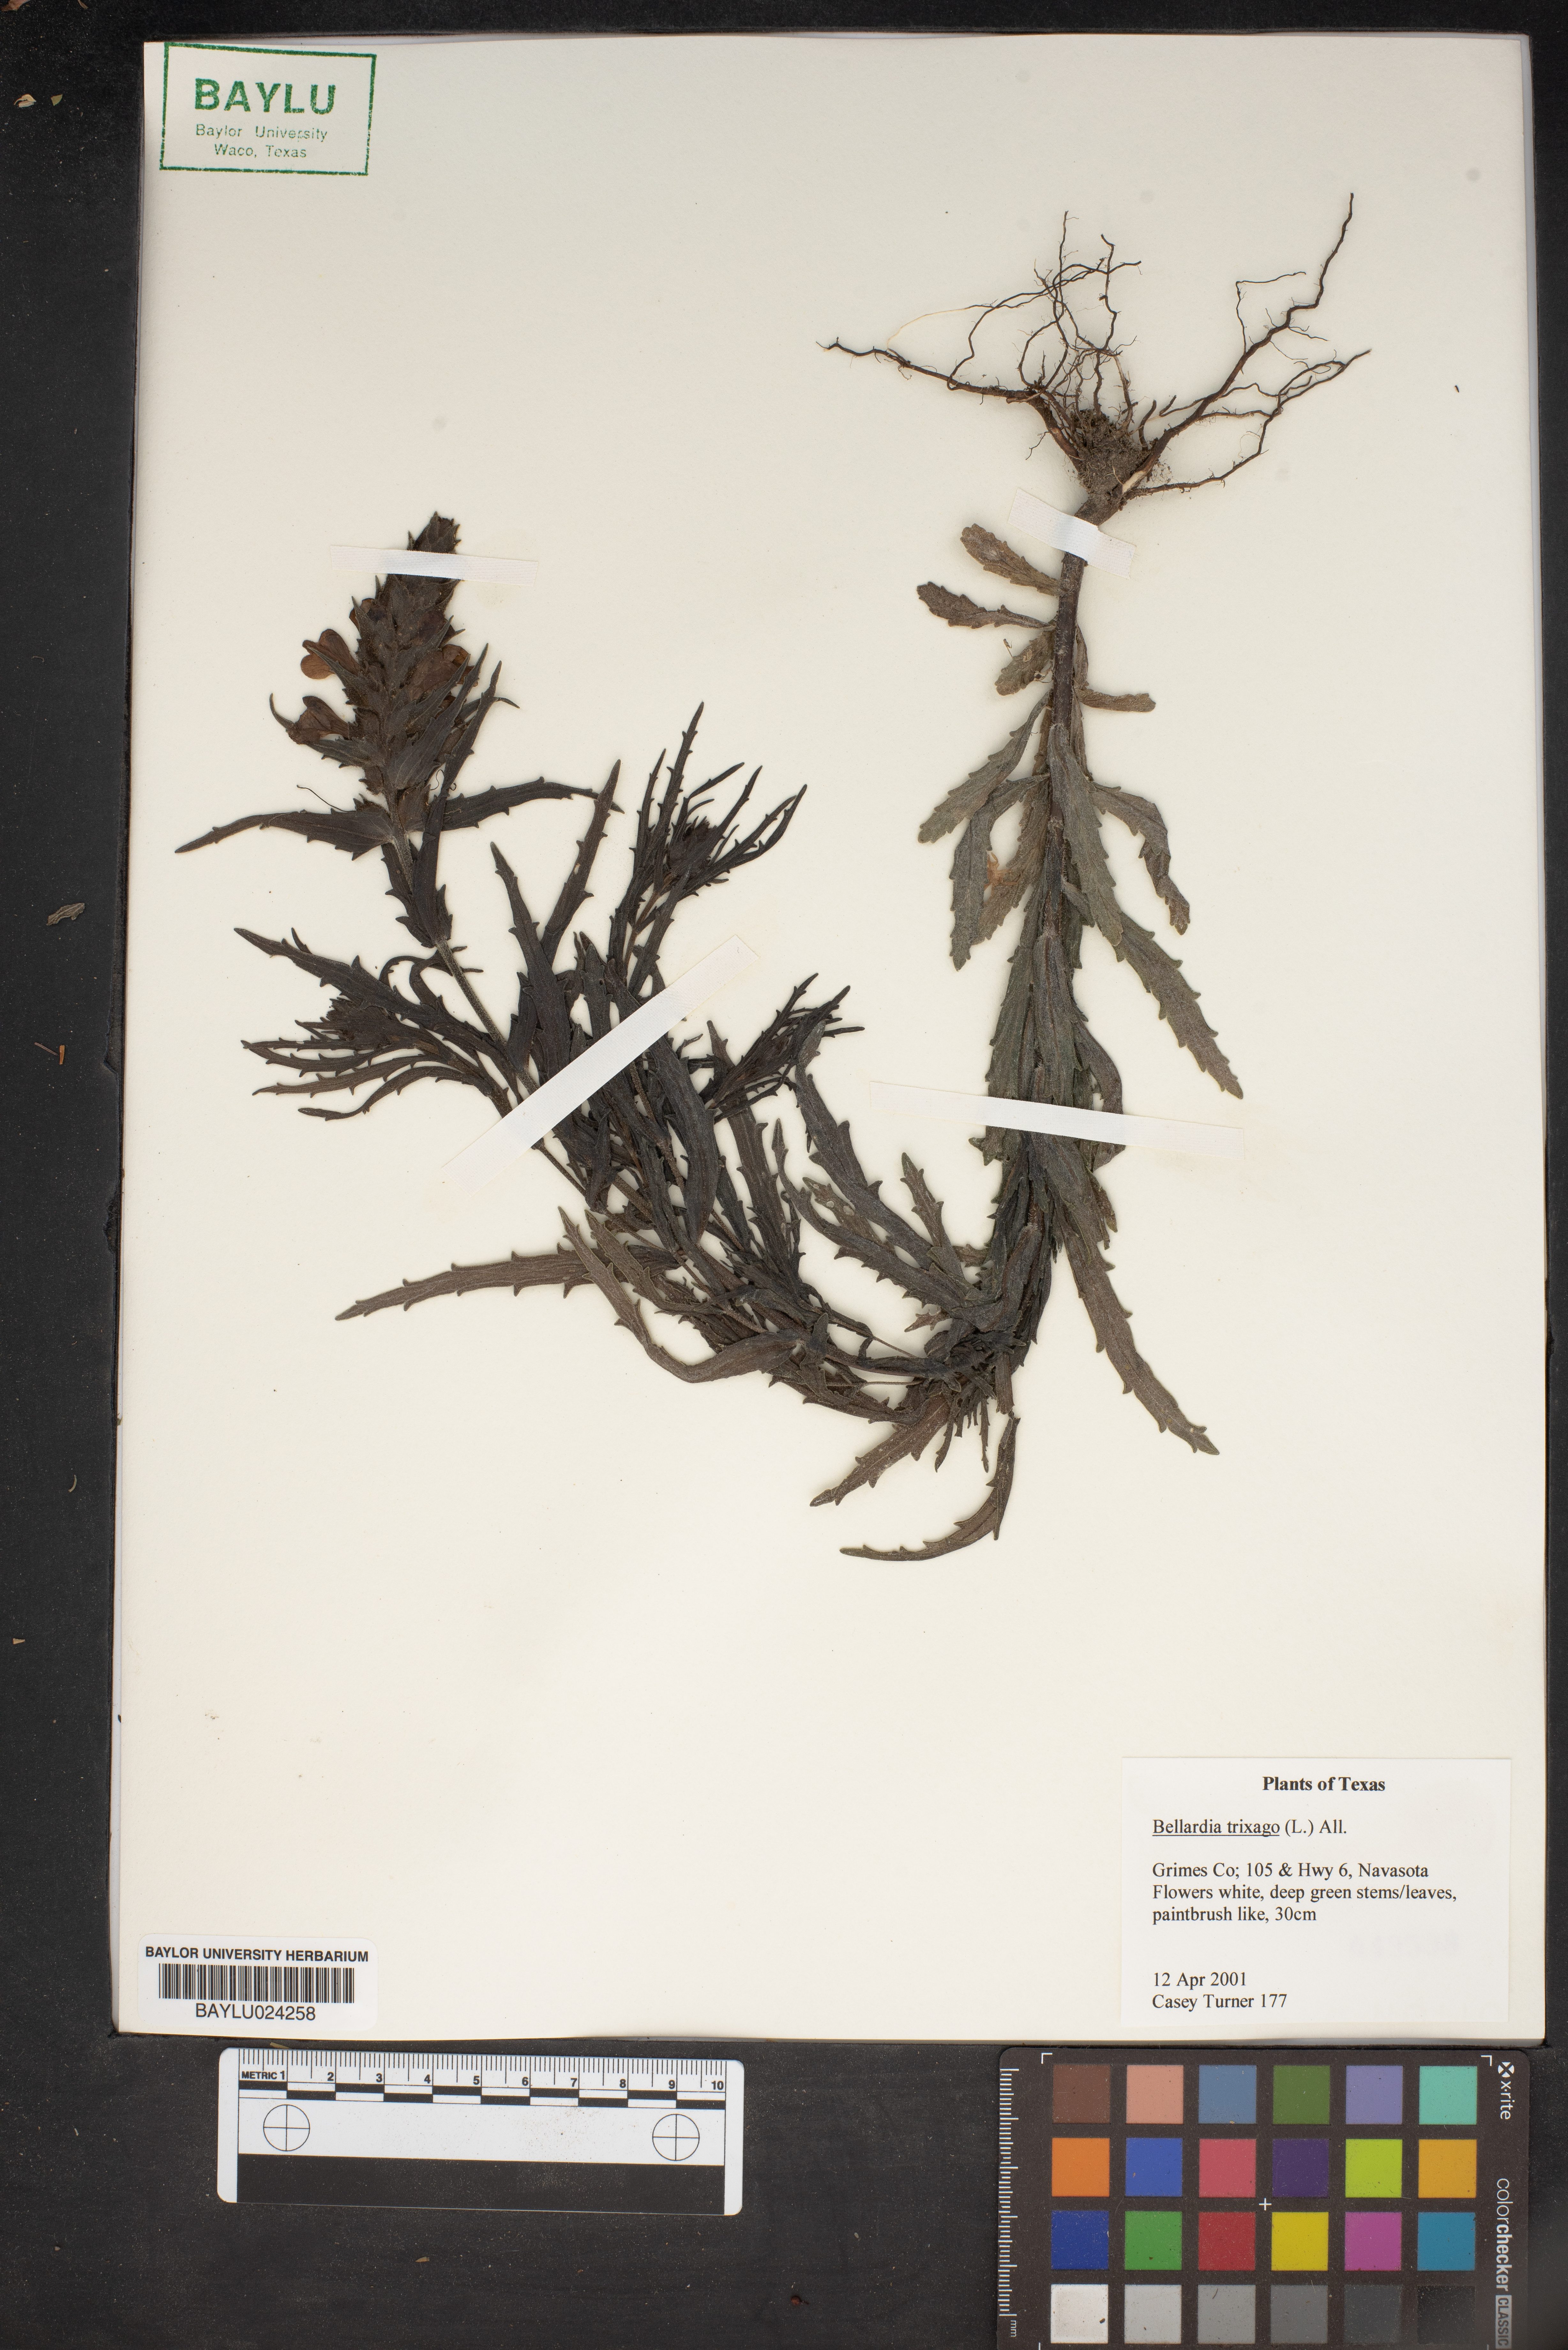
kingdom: Plantae
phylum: Tracheophyta
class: Magnoliopsida
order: Lamiales
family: Orobanchaceae
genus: Bellardia
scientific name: Bellardia trixago
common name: Mediterranean lineseed
